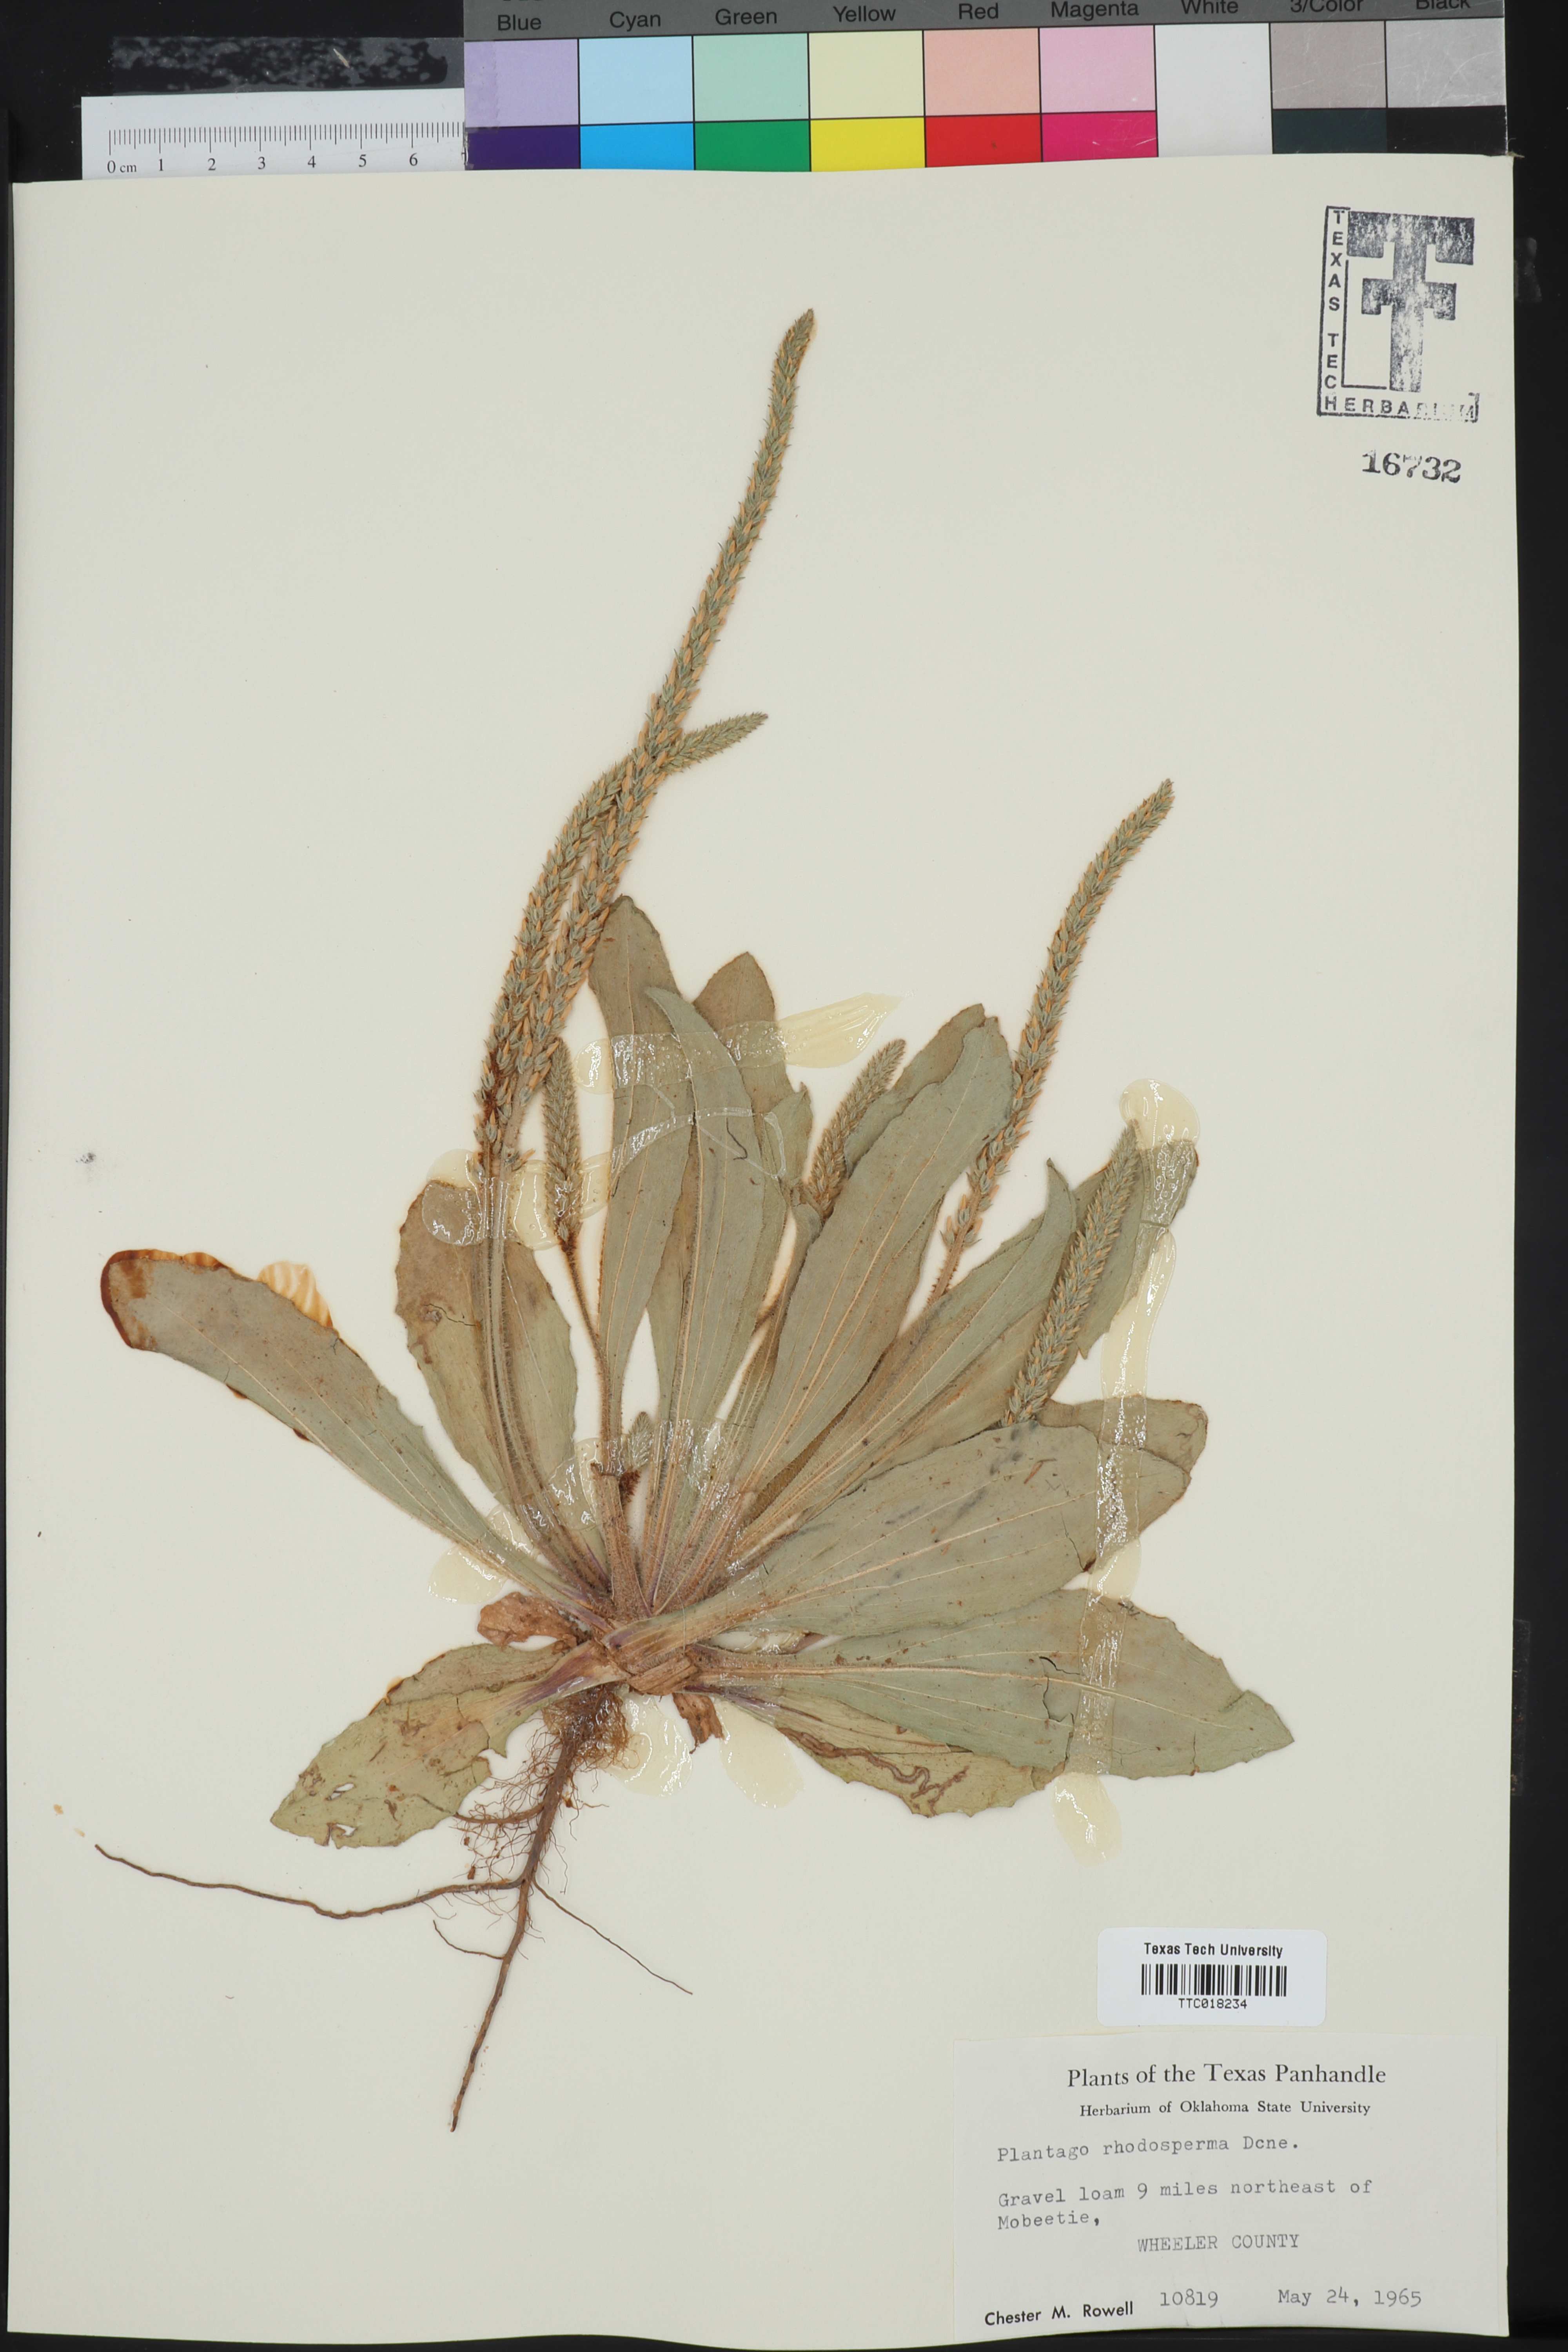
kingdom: Plantae
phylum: Tracheophyta
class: Magnoliopsida
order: Lamiales
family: Plantaginaceae
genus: Plantago
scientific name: Plantago rhodosperma
